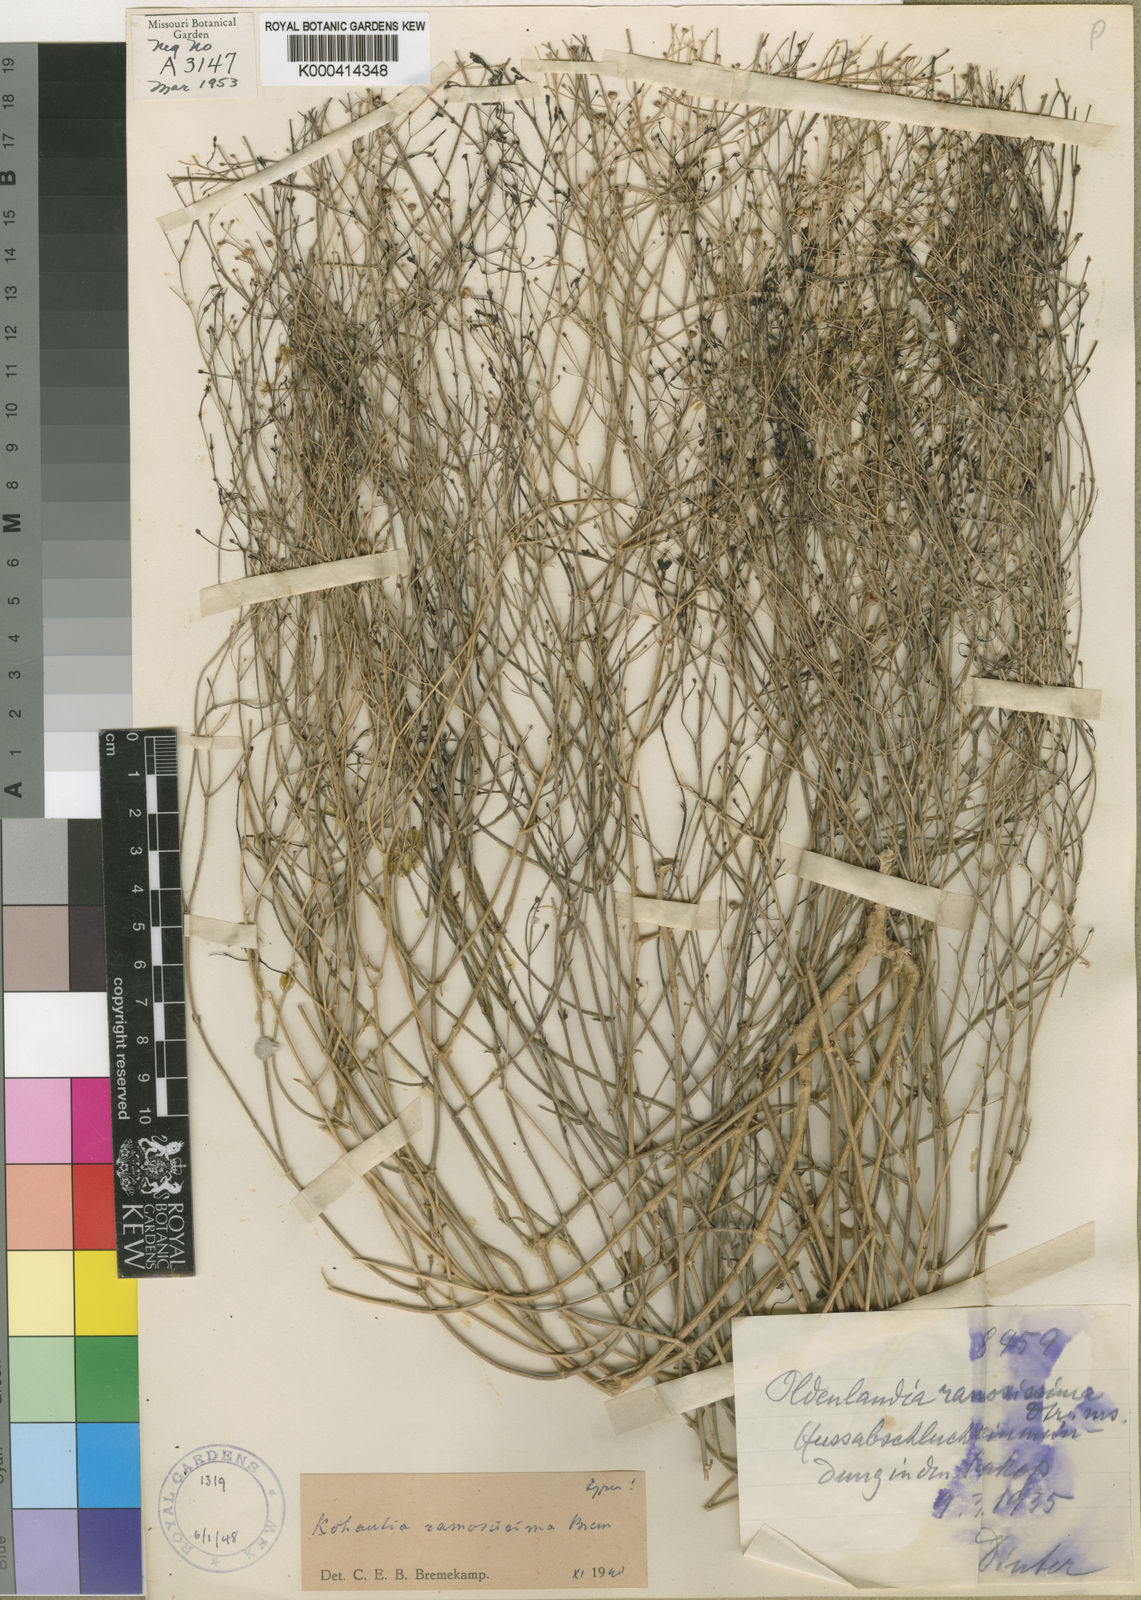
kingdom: Plantae
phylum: Tracheophyta
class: Magnoliopsida
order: Gentianales
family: Rubiaceae
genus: Kohautia
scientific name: Kohautia cynanchica
